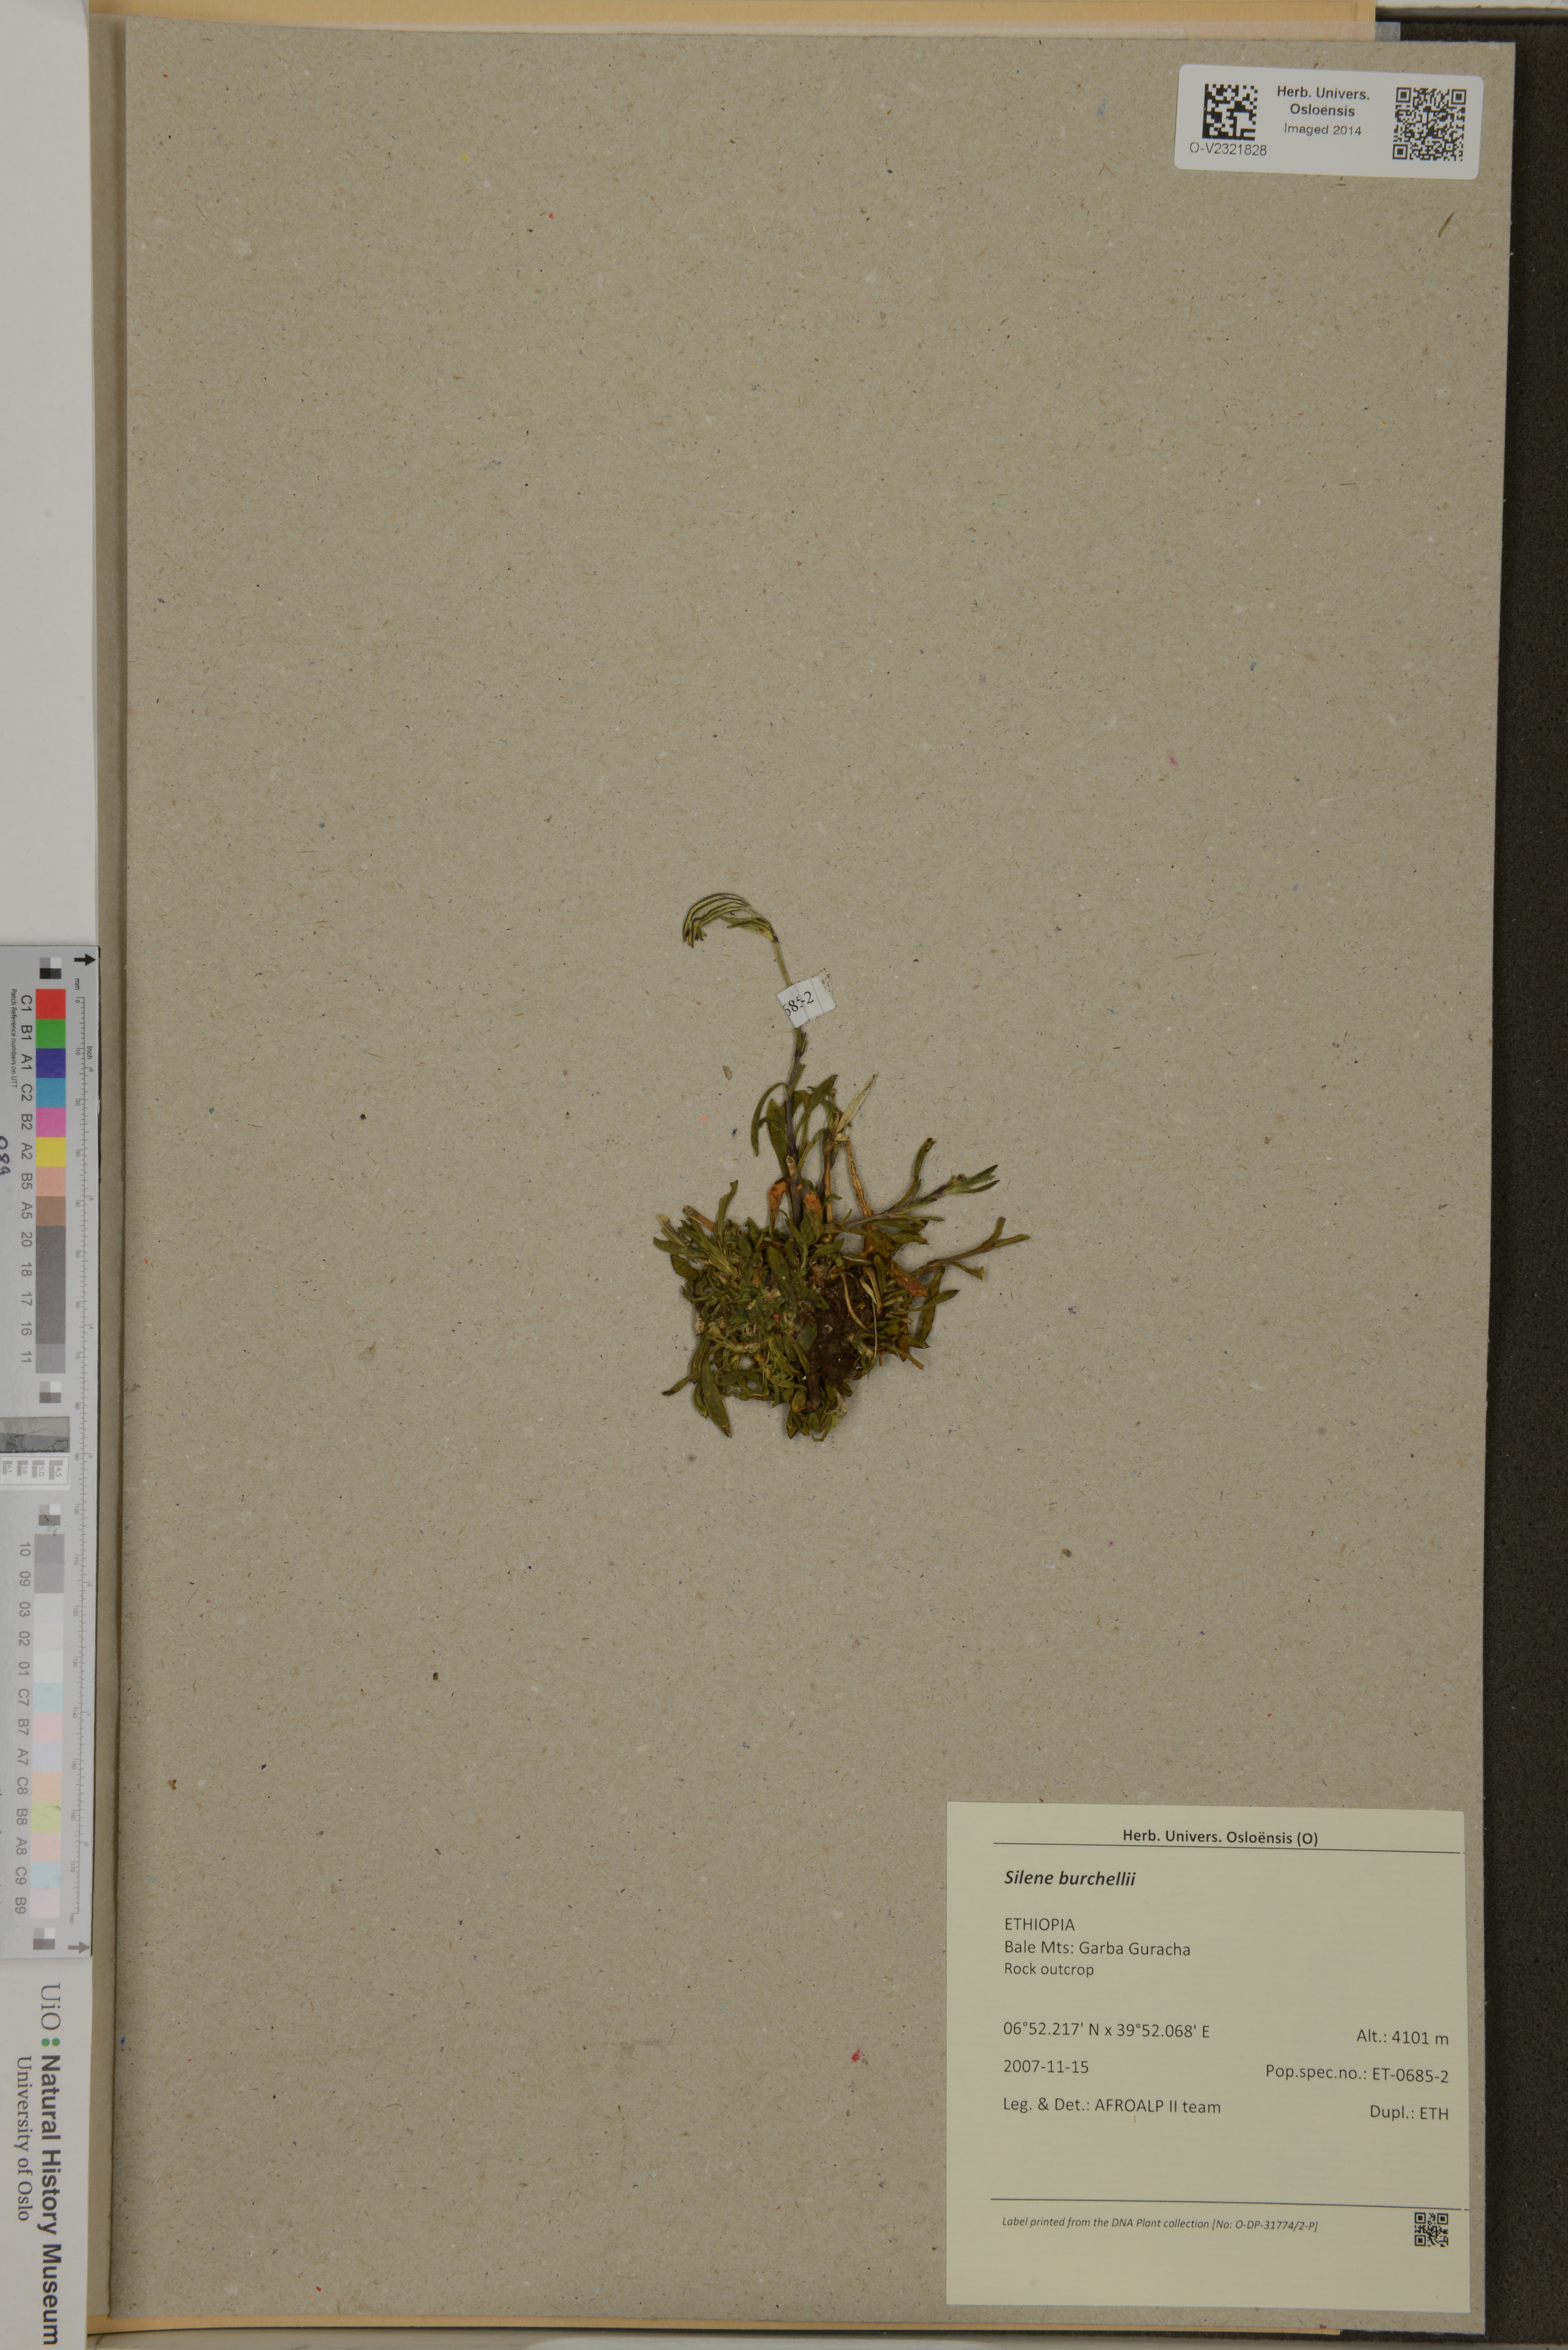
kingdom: Plantae
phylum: Tracheophyta
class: Magnoliopsida
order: Caryophyllales
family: Caryophyllaceae
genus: Silene
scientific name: Silene burchellii
